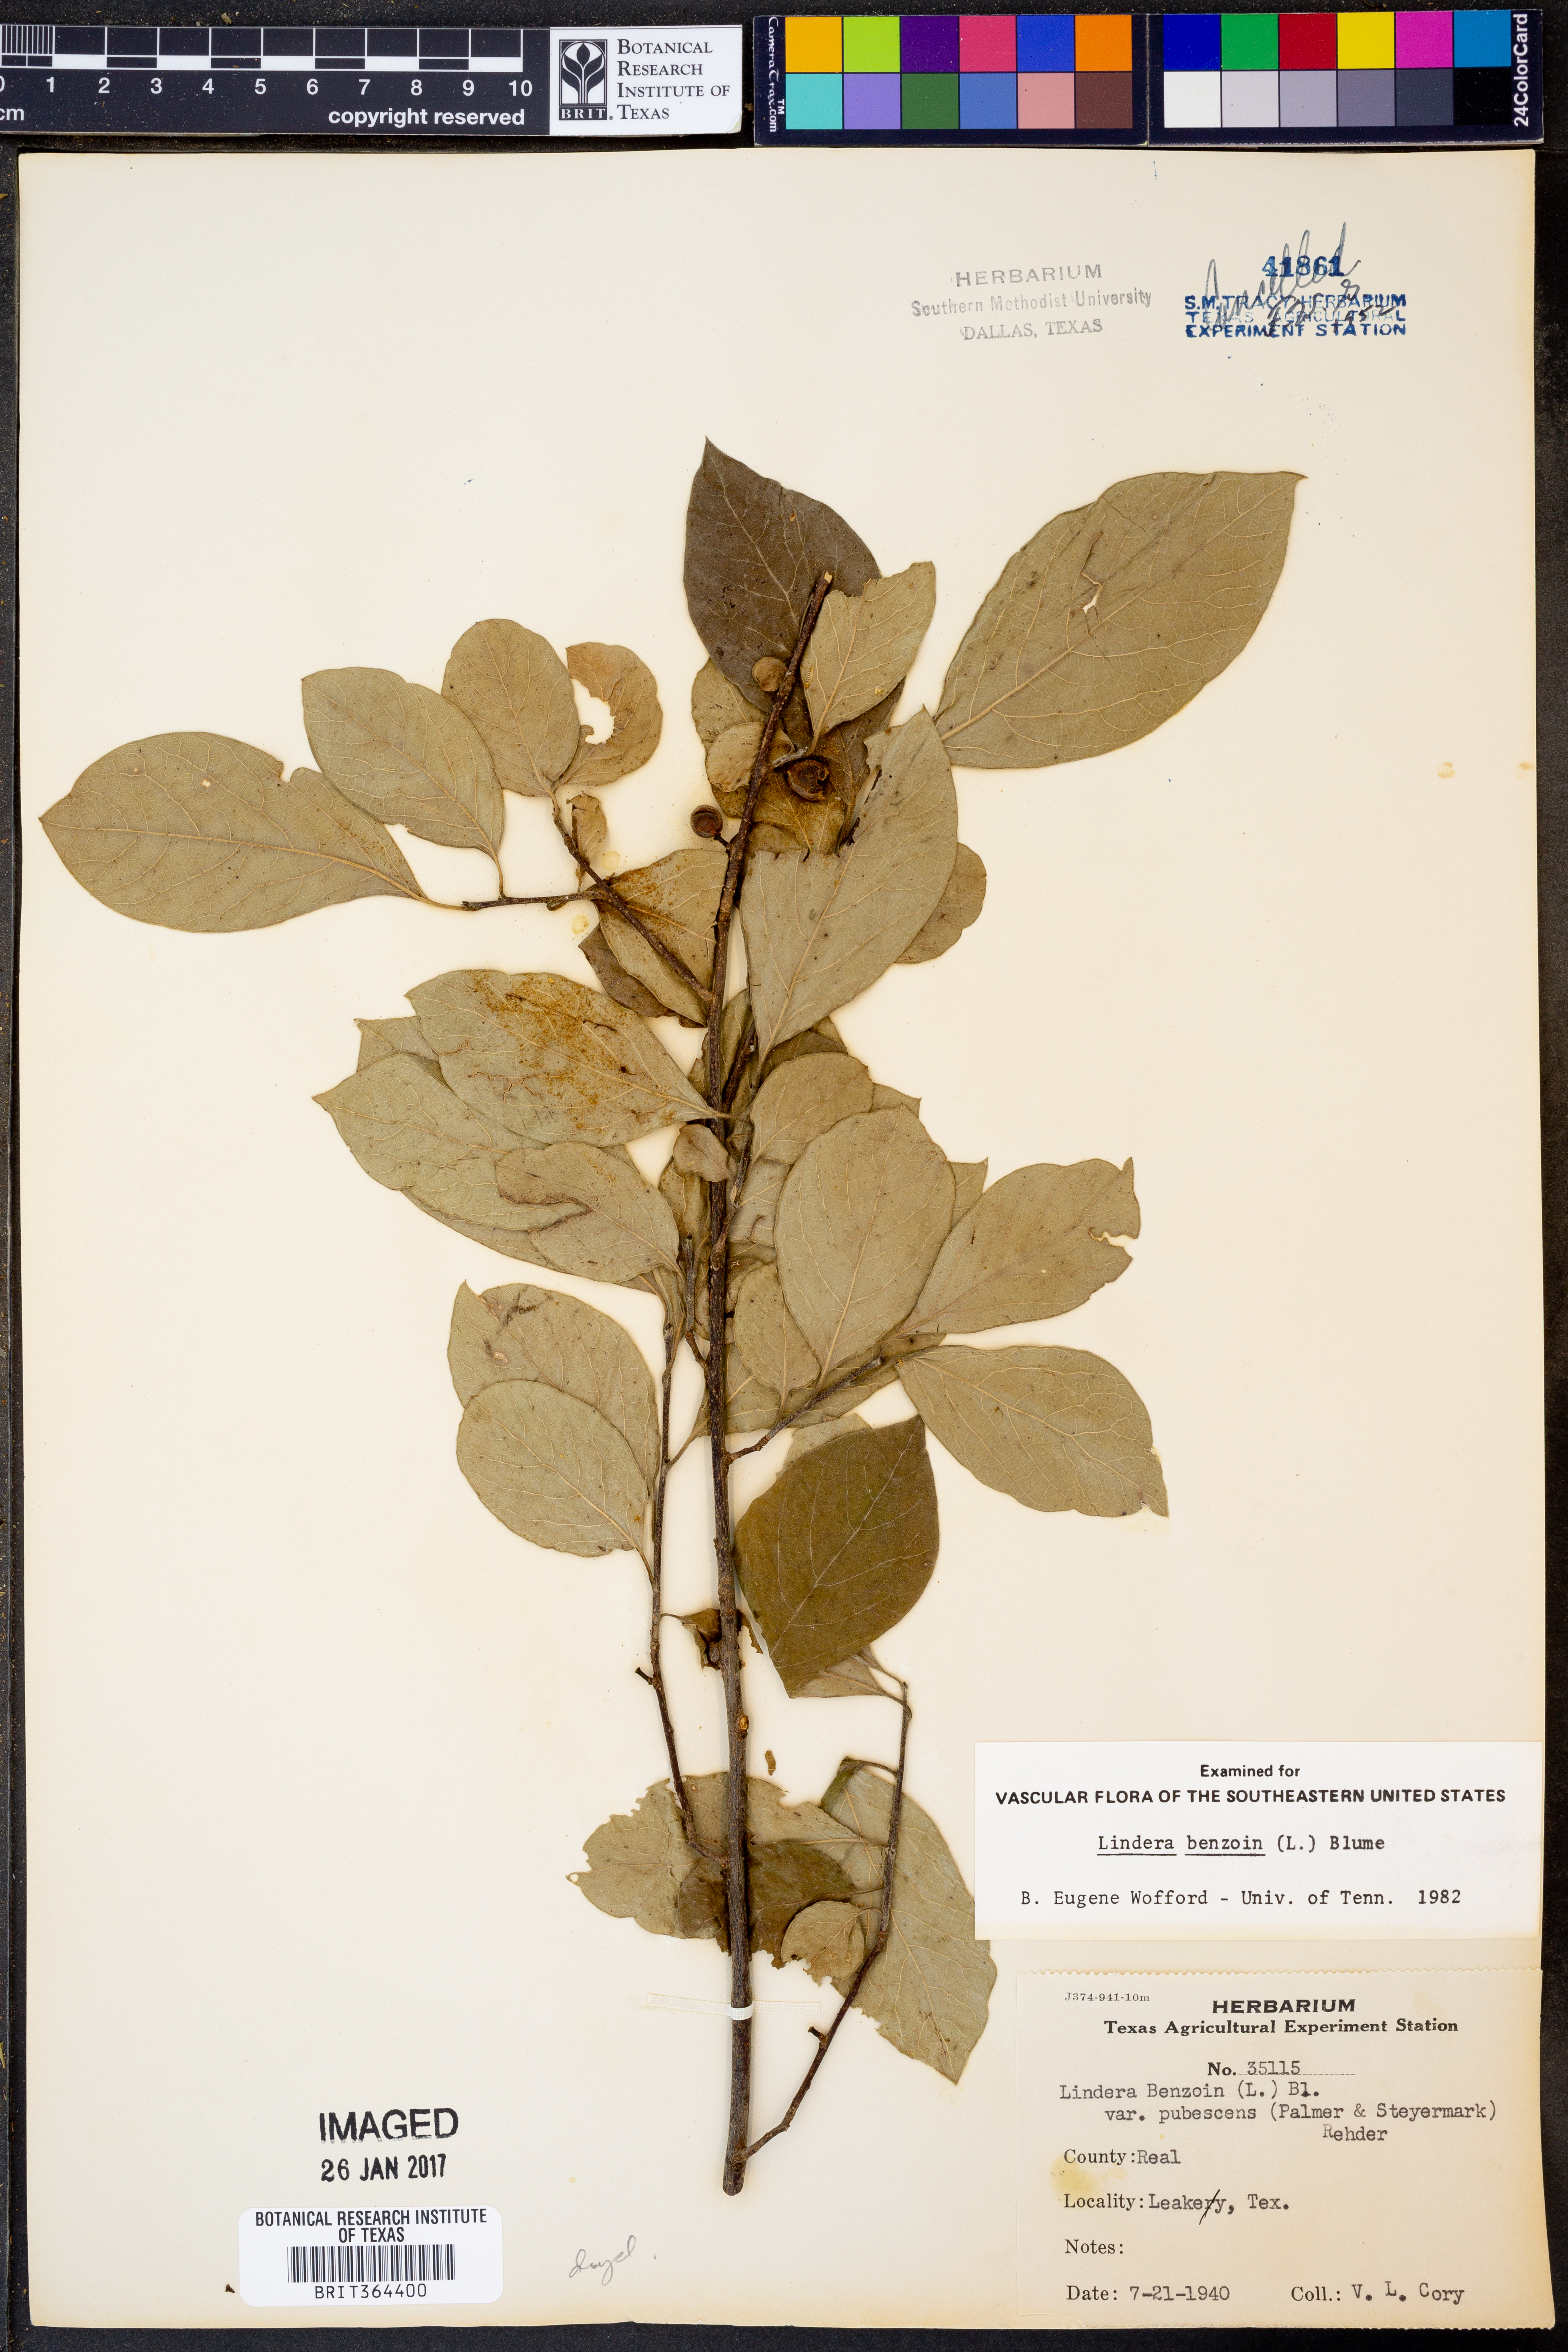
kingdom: Plantae
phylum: Tracheophyta
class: Magnoliopsida
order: Laurales
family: Lauraceae
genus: Lindera
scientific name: Lindera benzoin
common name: Spicebush
